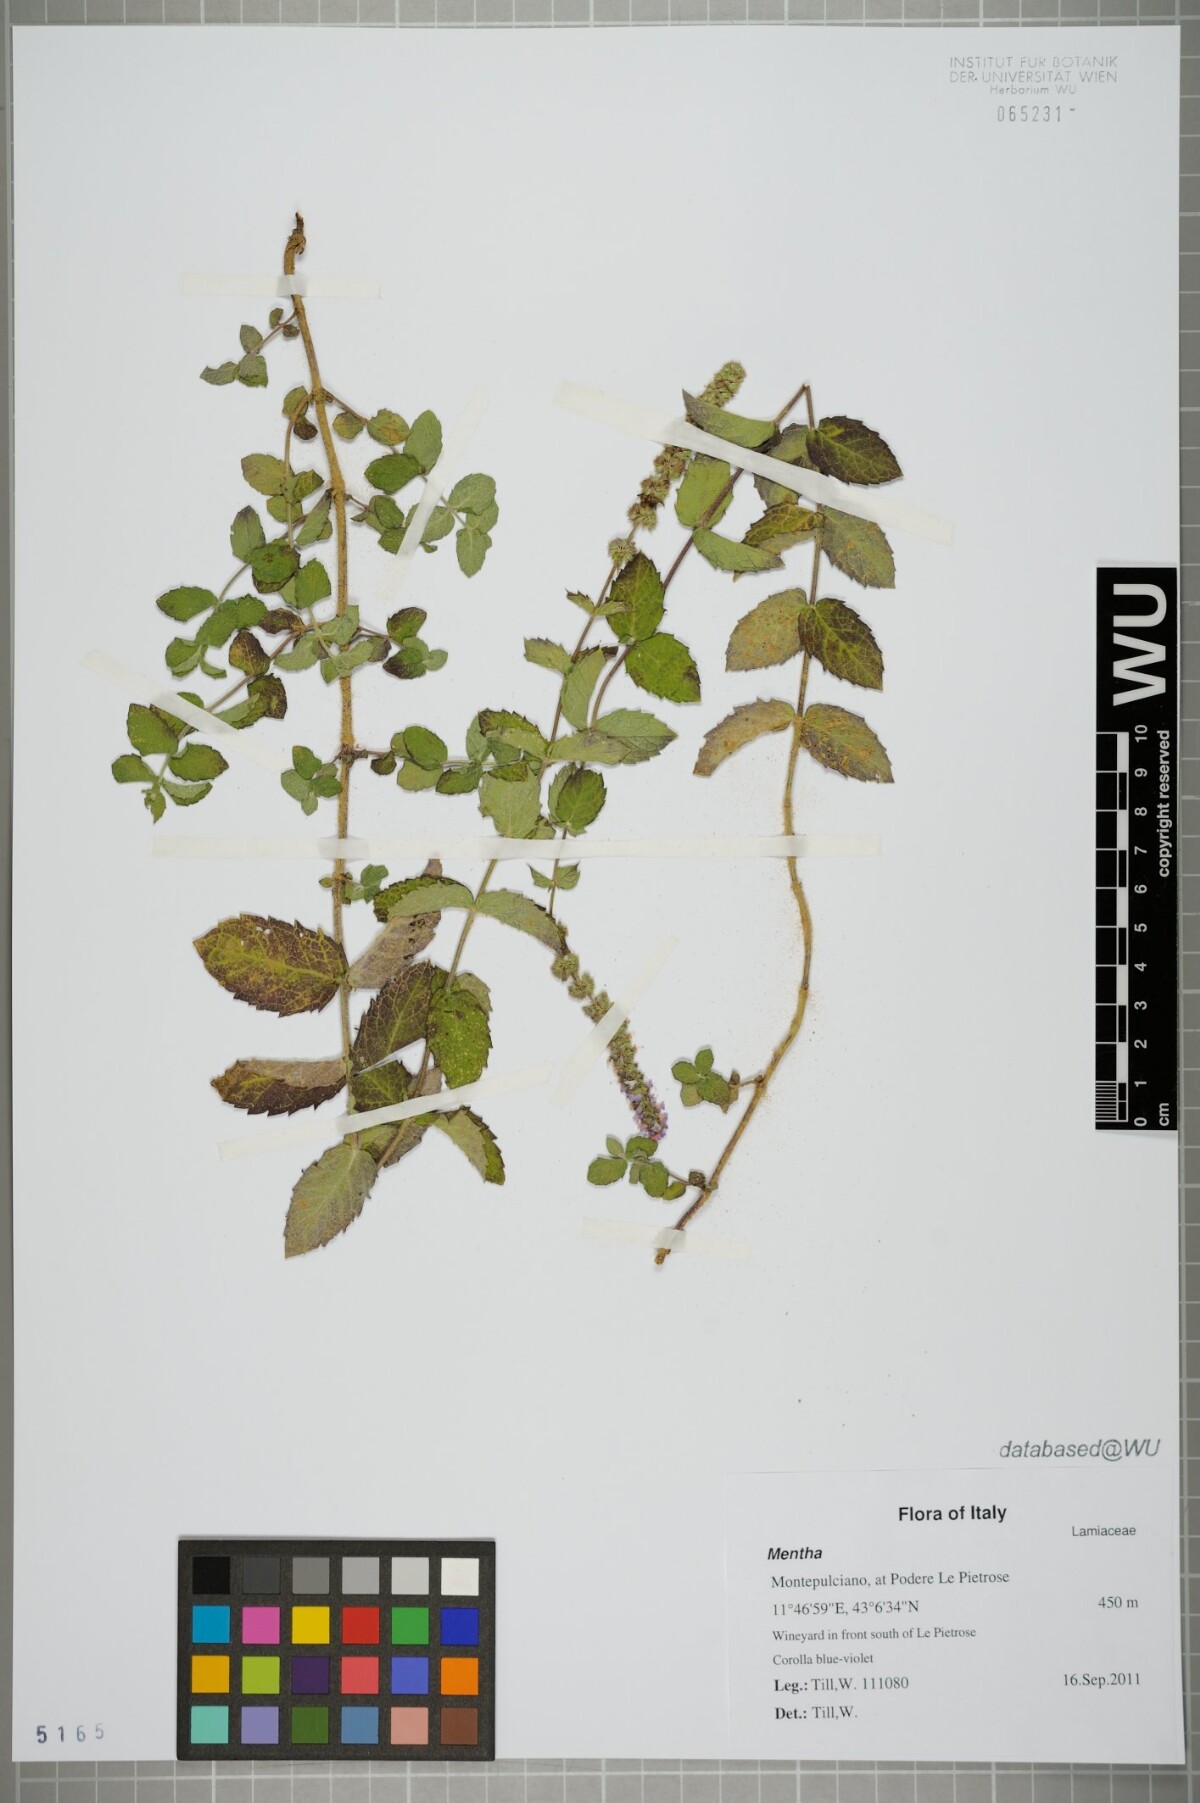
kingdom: Plantae
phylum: Tracheophyta
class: Magnoliopsida
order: Lamiales
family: Lamiaceae
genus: Mentha
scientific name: Mentha
